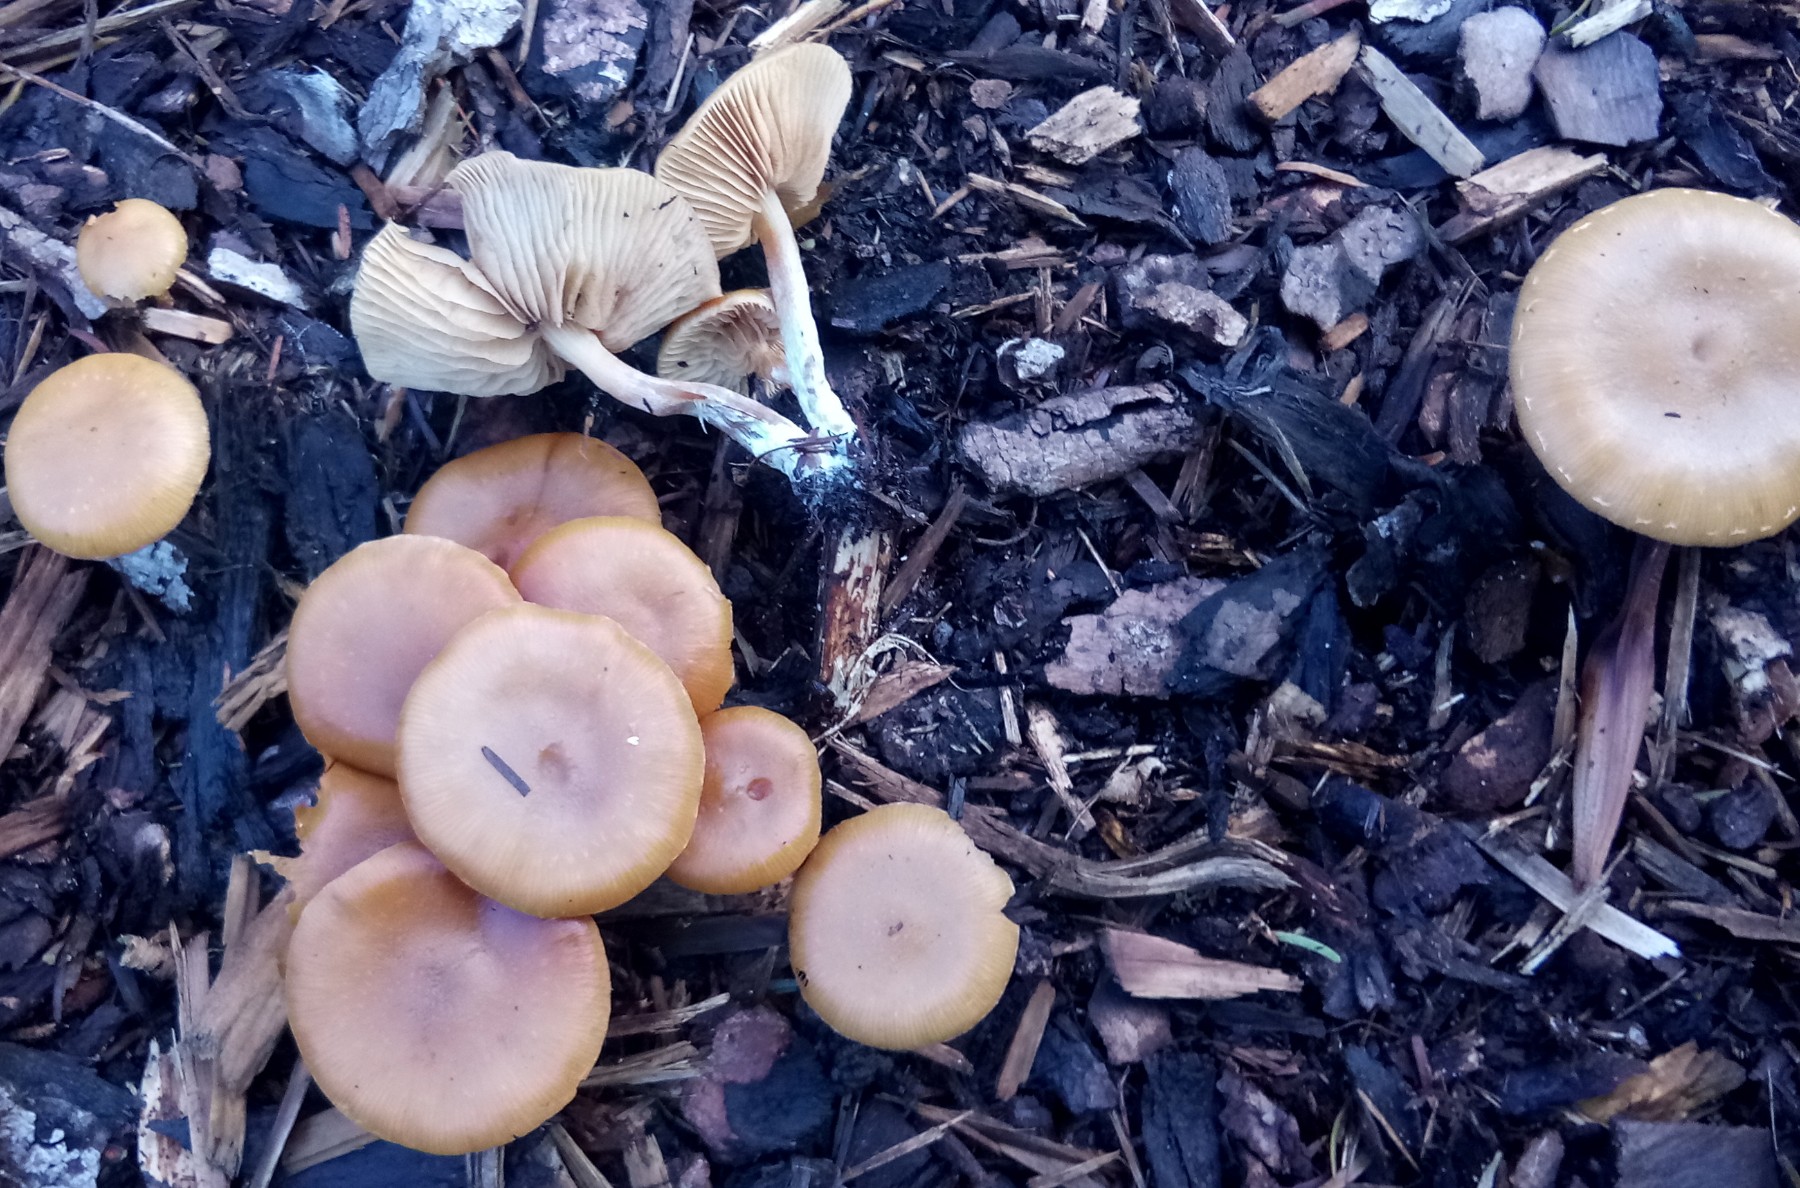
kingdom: Fungi
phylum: Basidiomycota
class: Agaricomycetes
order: Agaricales
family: Hymenogastraceae
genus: Galerina
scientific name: Galerina sideroides
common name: træflis-hjelmhat
